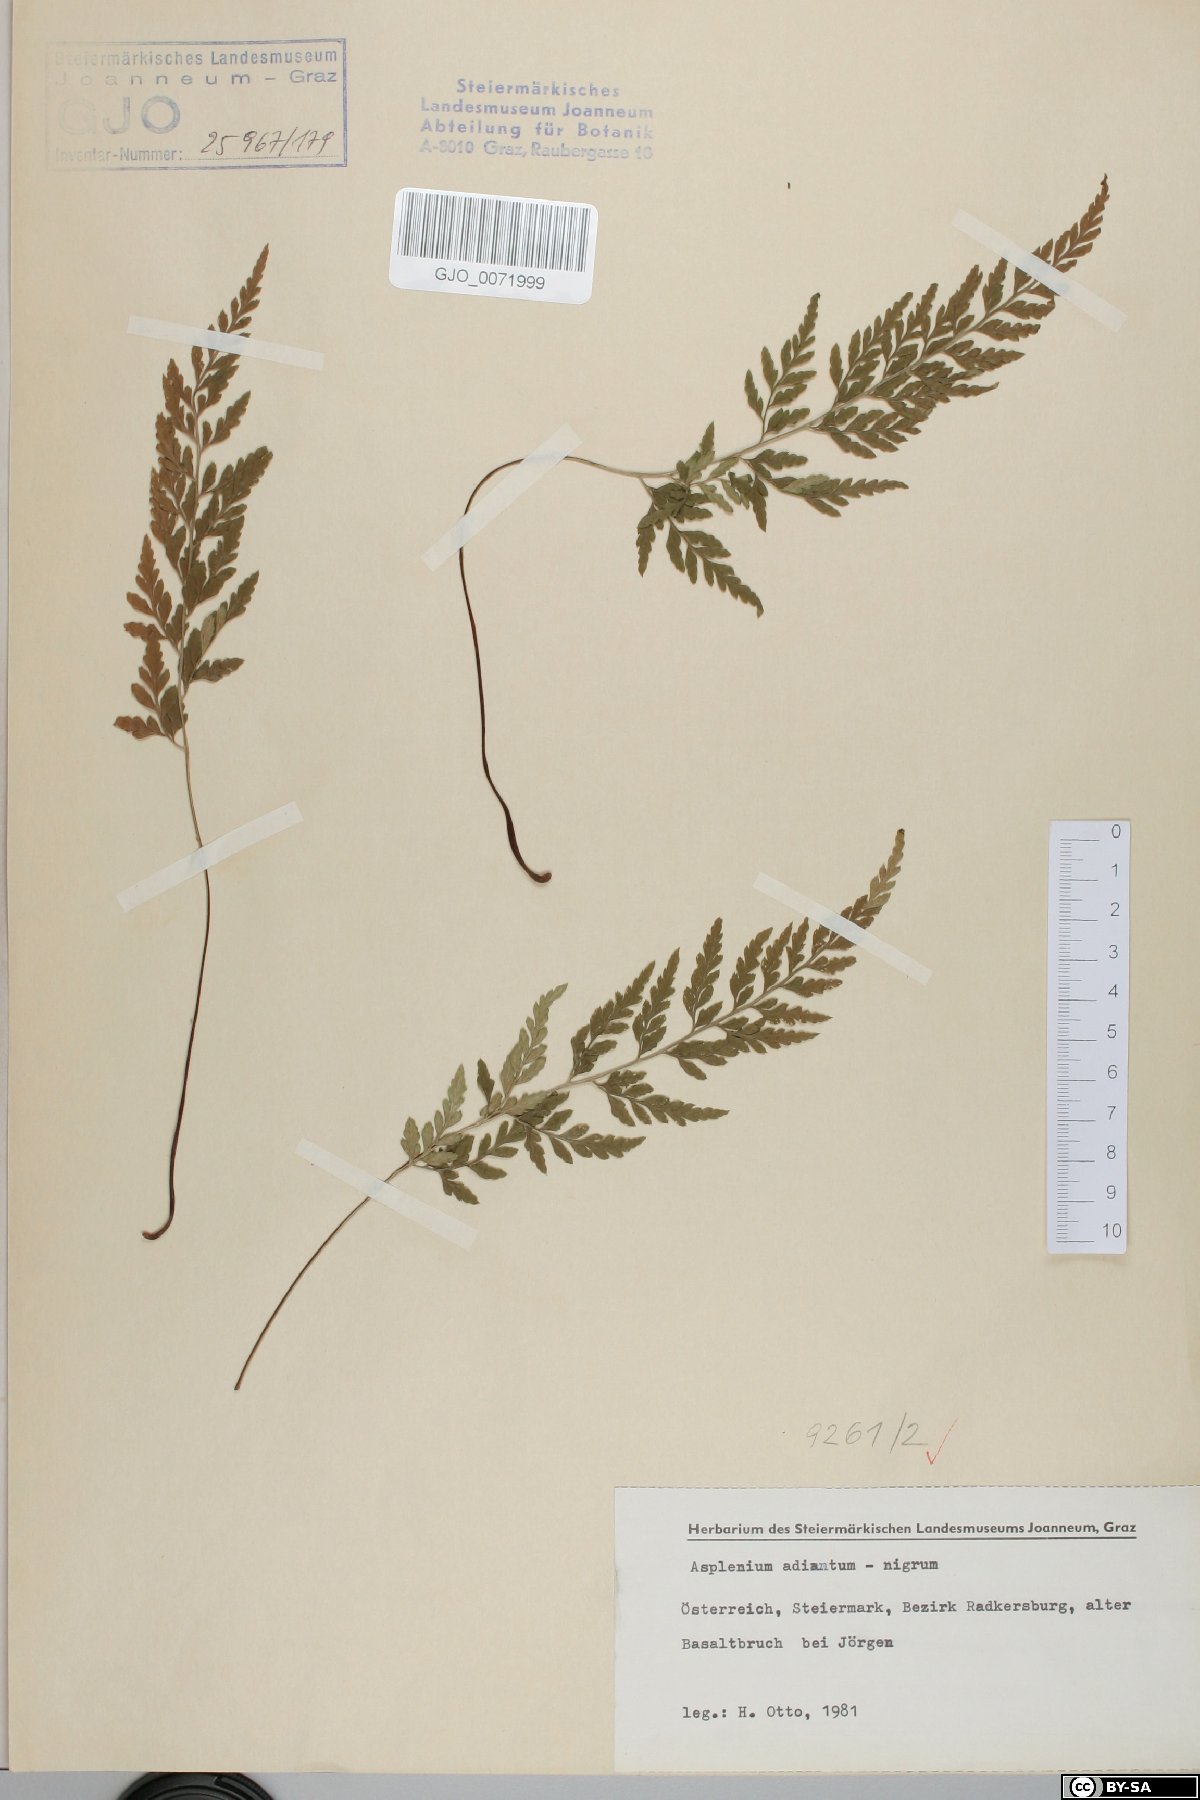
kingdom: Plantae
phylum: Tracheophyta
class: Polypodiopsida
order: Polypodiales
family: Aspleniaceae
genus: Asplenium
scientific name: Asplenium adiantum-nigrum
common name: Black spleenwort
